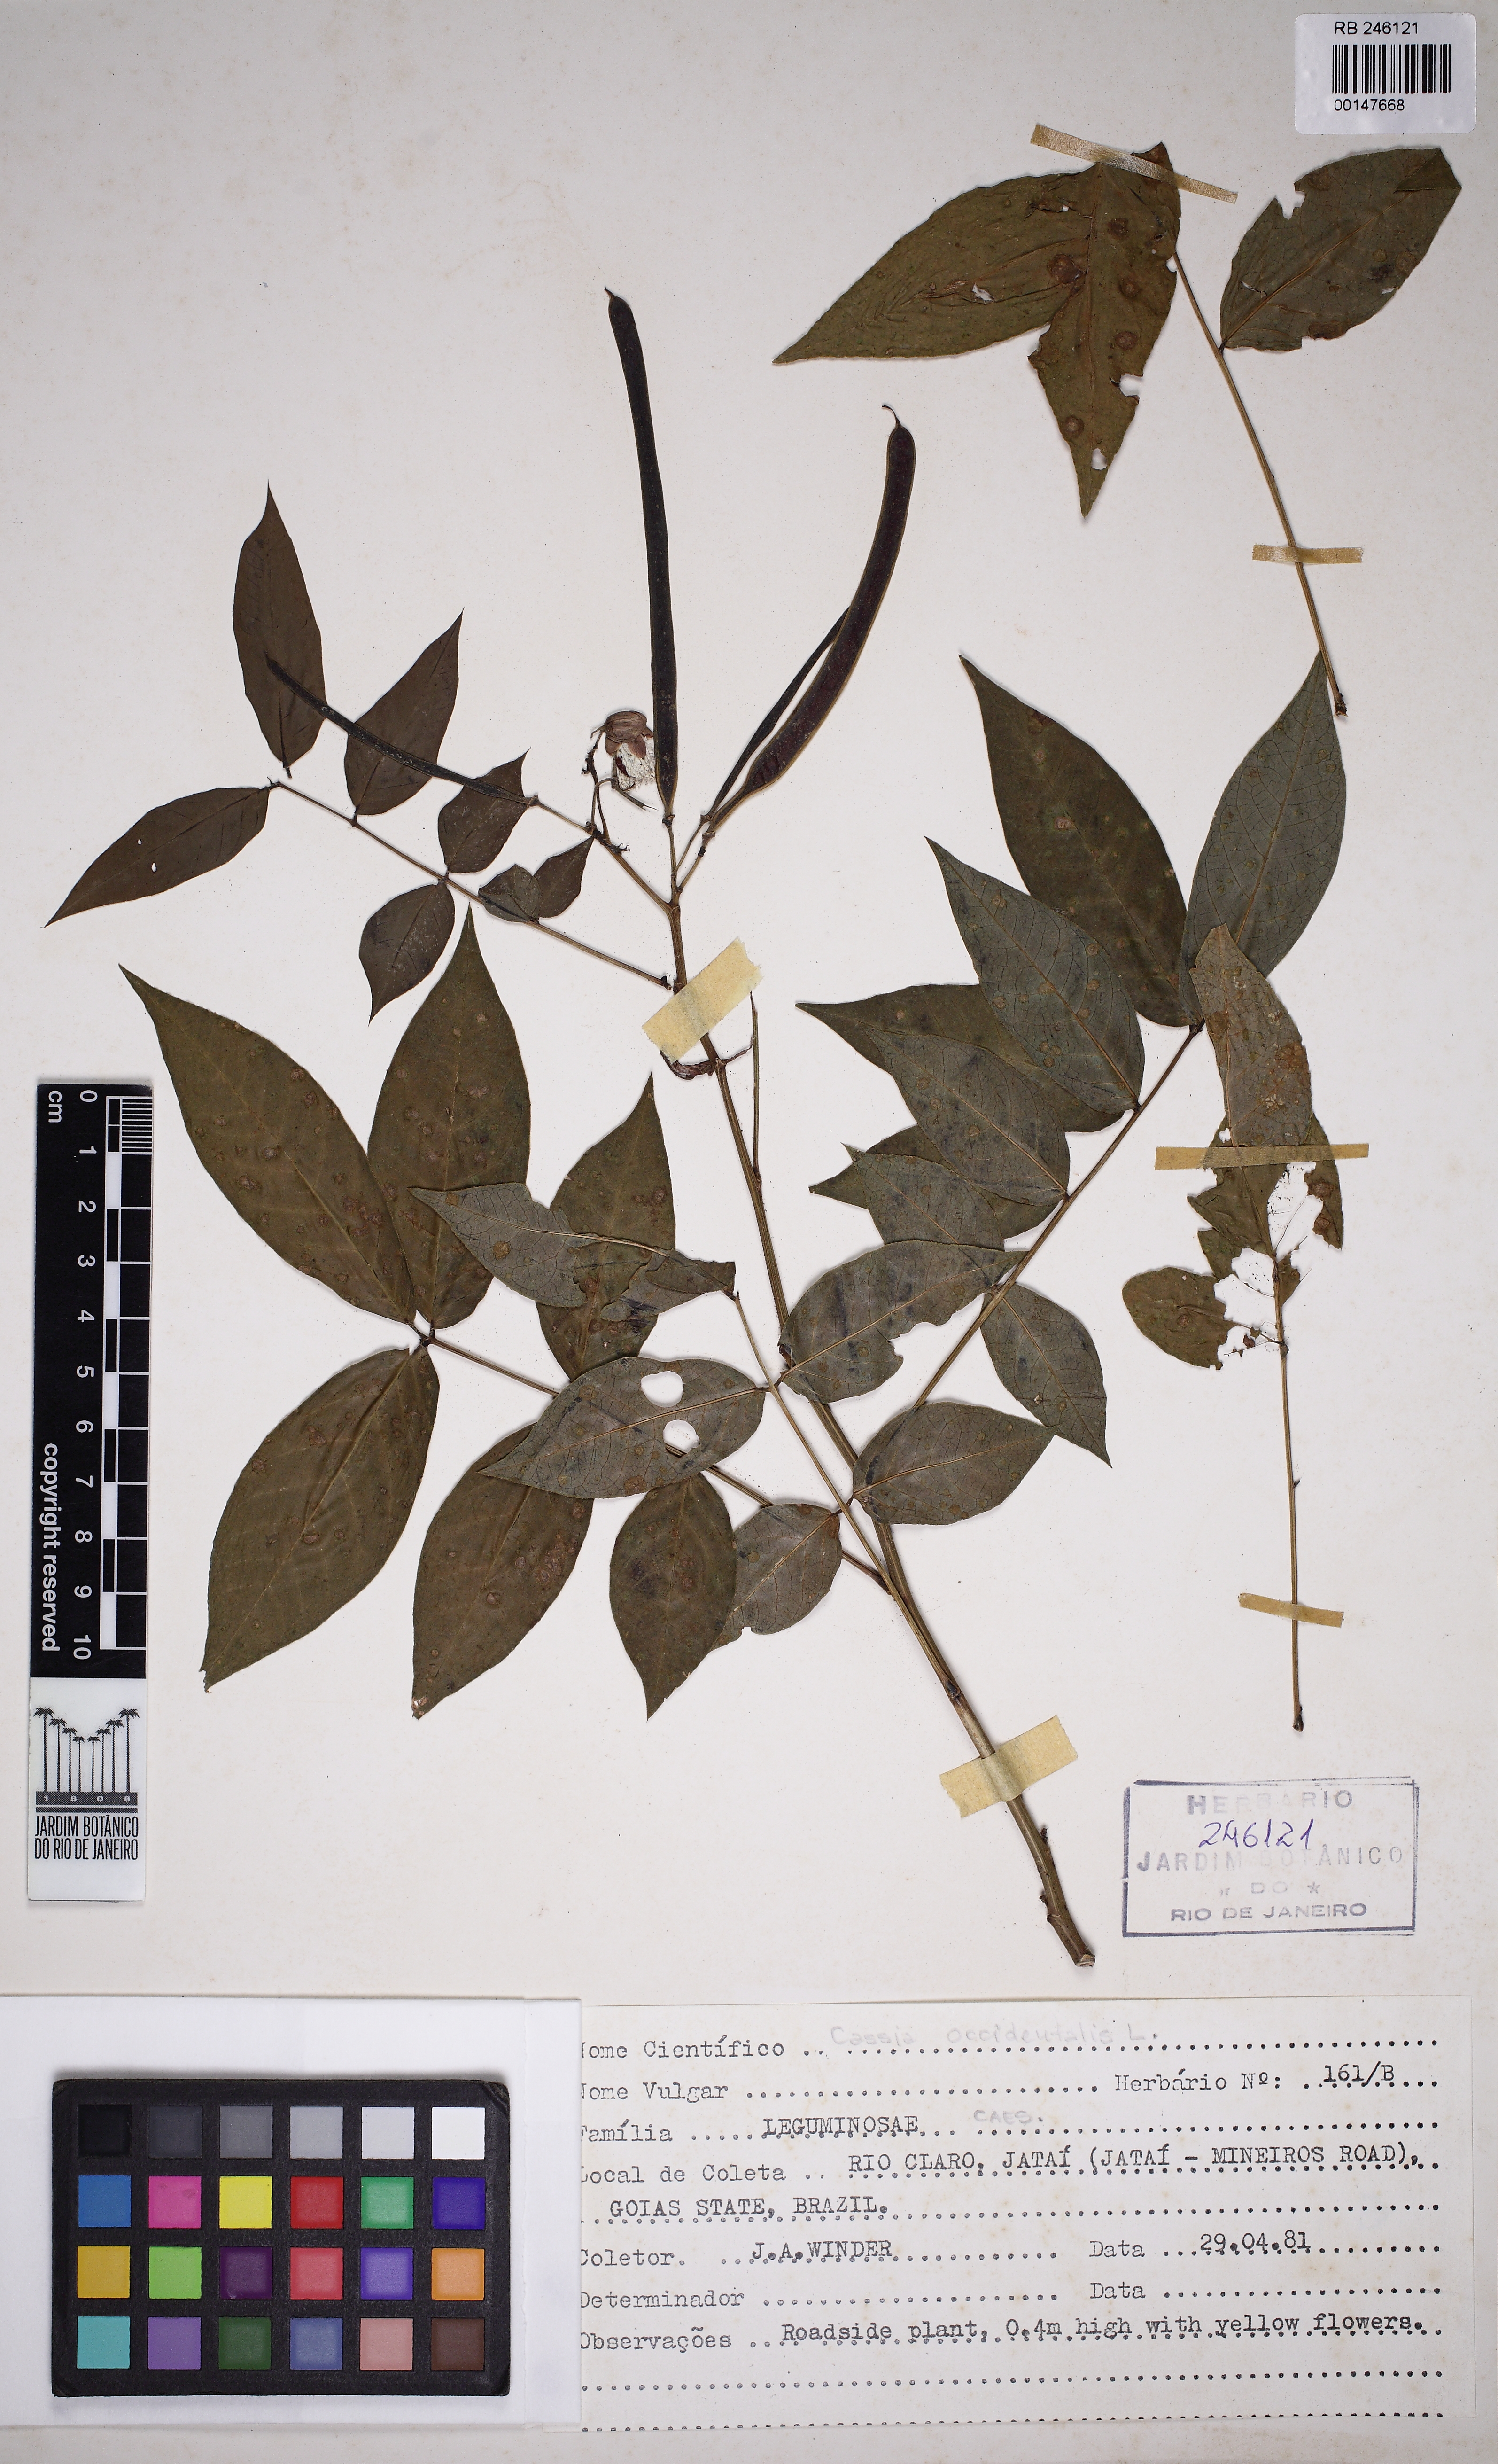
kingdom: Plantae
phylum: Tracheophyta
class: Magnoliopsida
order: Fabales
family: Fabaceae
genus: Senna
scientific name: Senna occidentalis
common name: Septicweed
